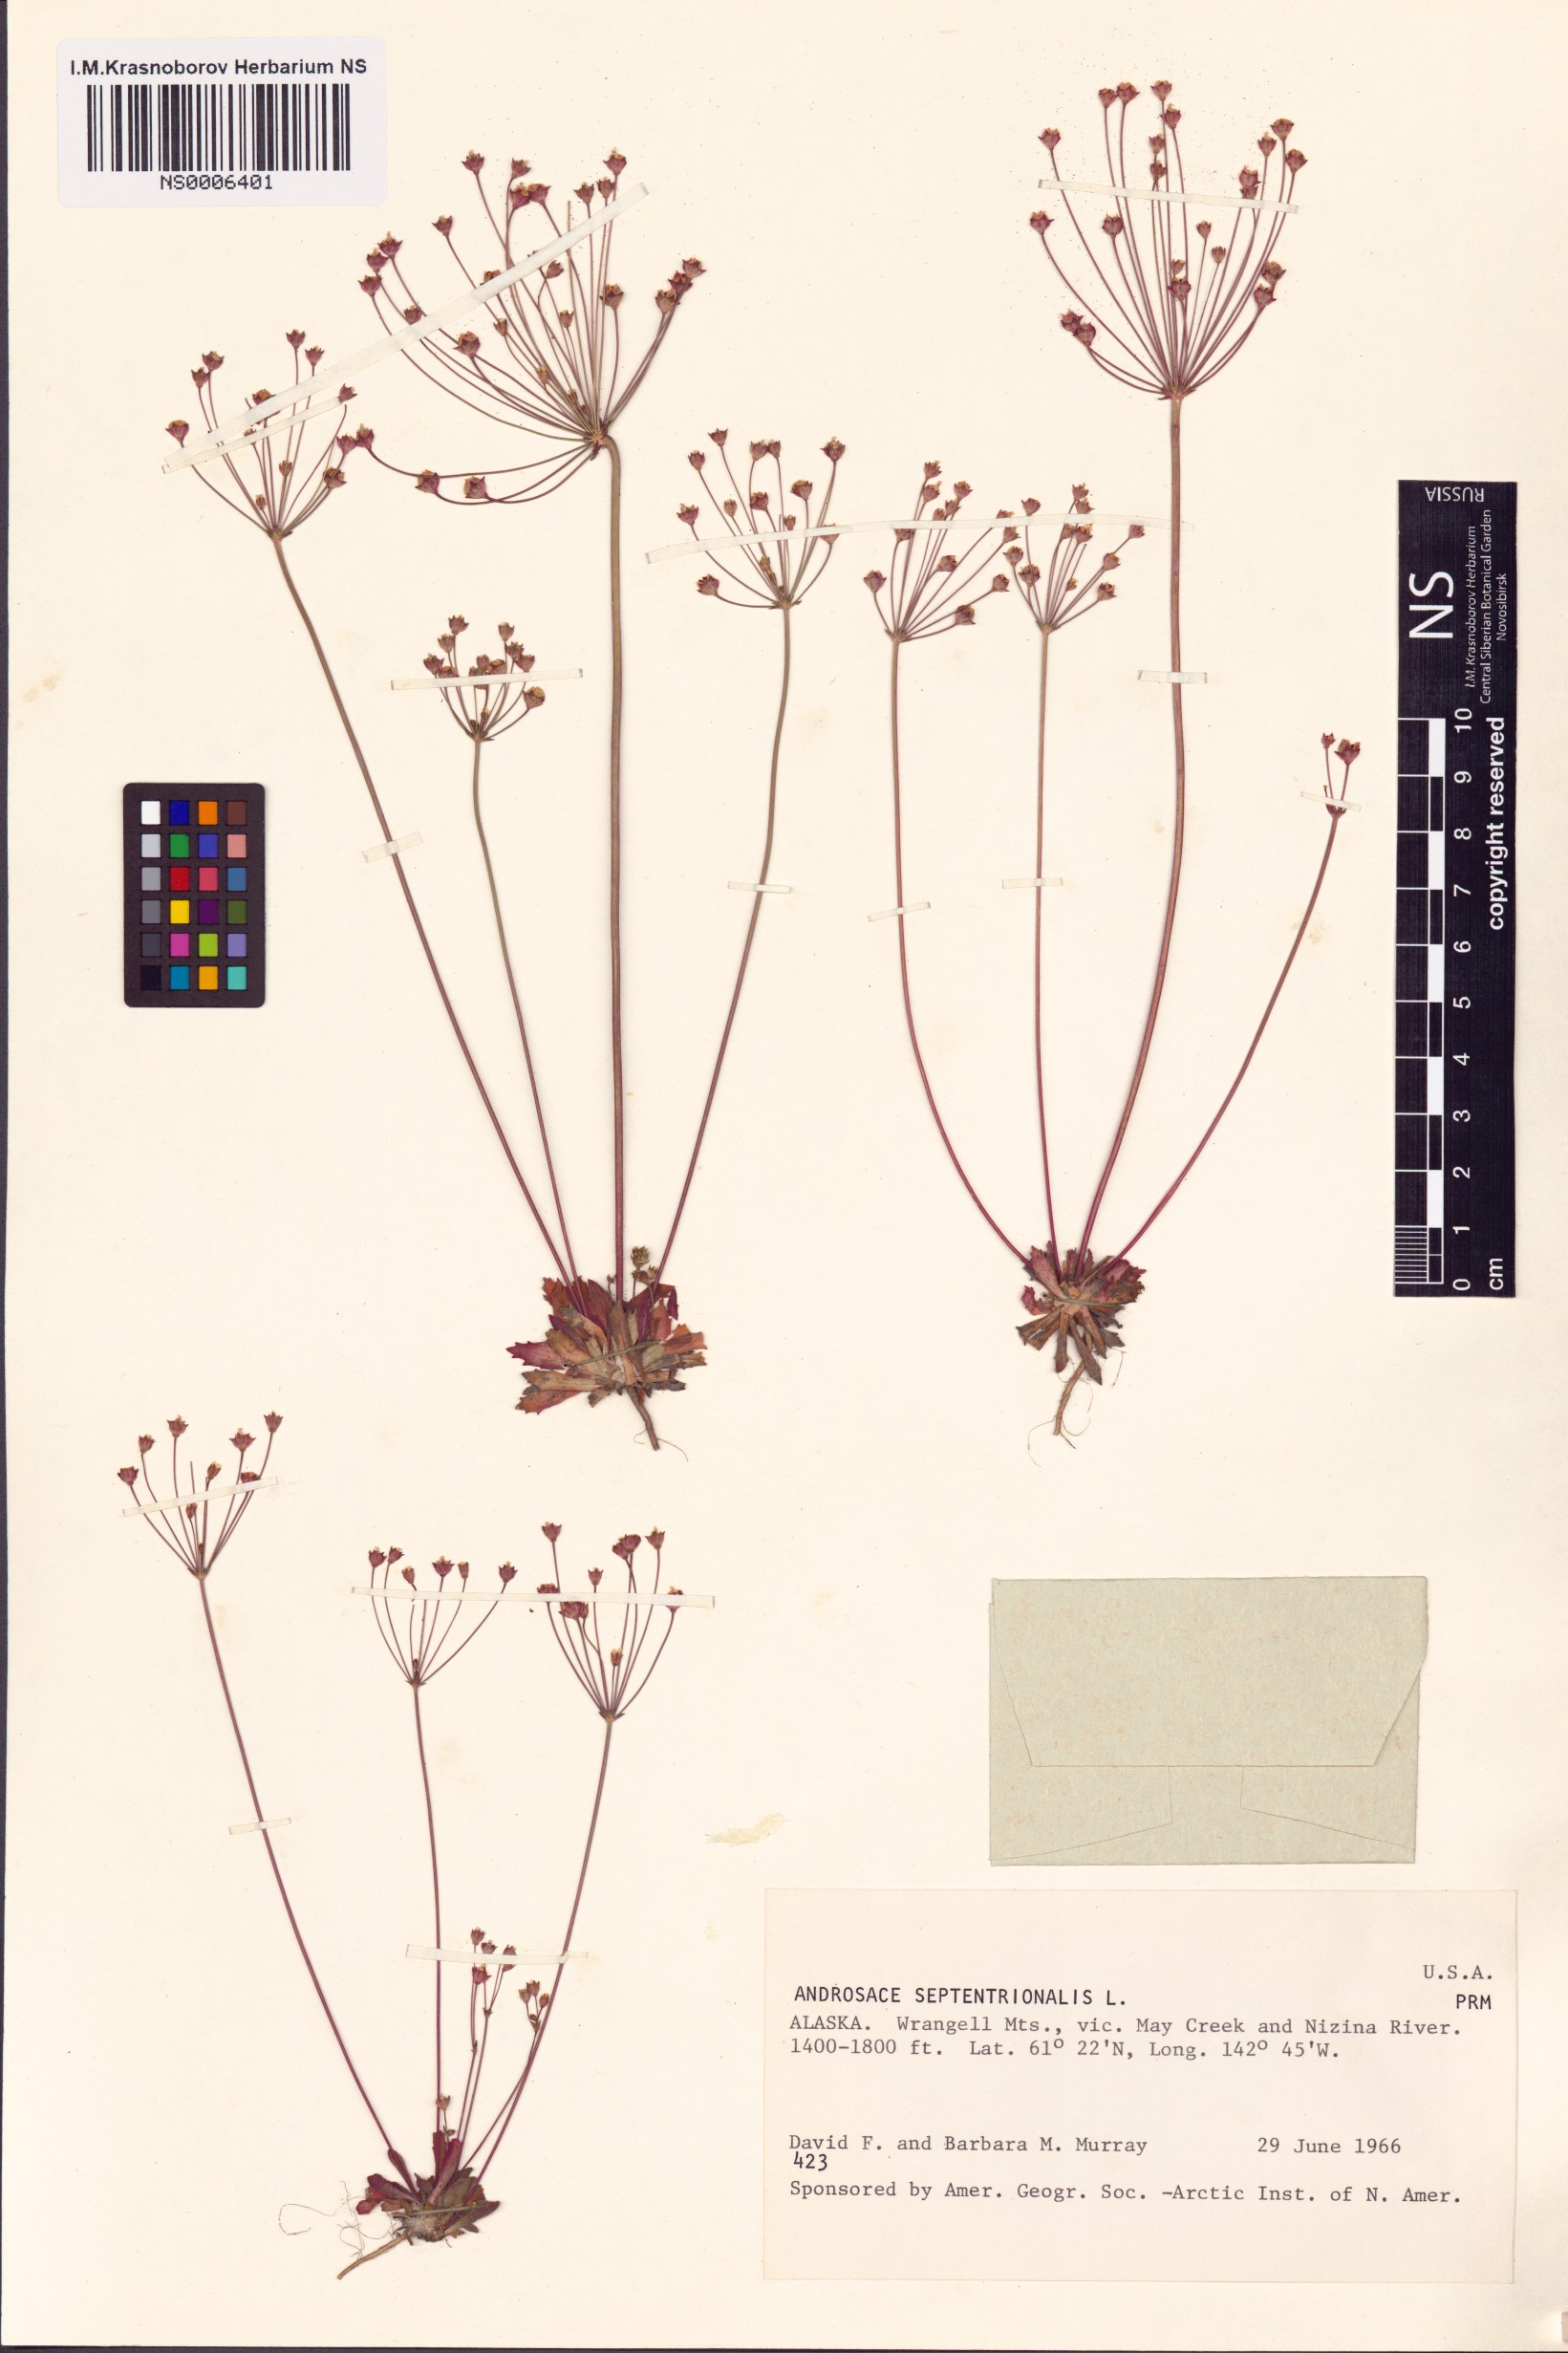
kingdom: Plantae
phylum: Tracheophyta
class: Magnoliopsida
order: Ericales
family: Primulaceae
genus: Androsace
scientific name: Androsace septentrionalis
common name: Hairy northern fairy-candelabra
